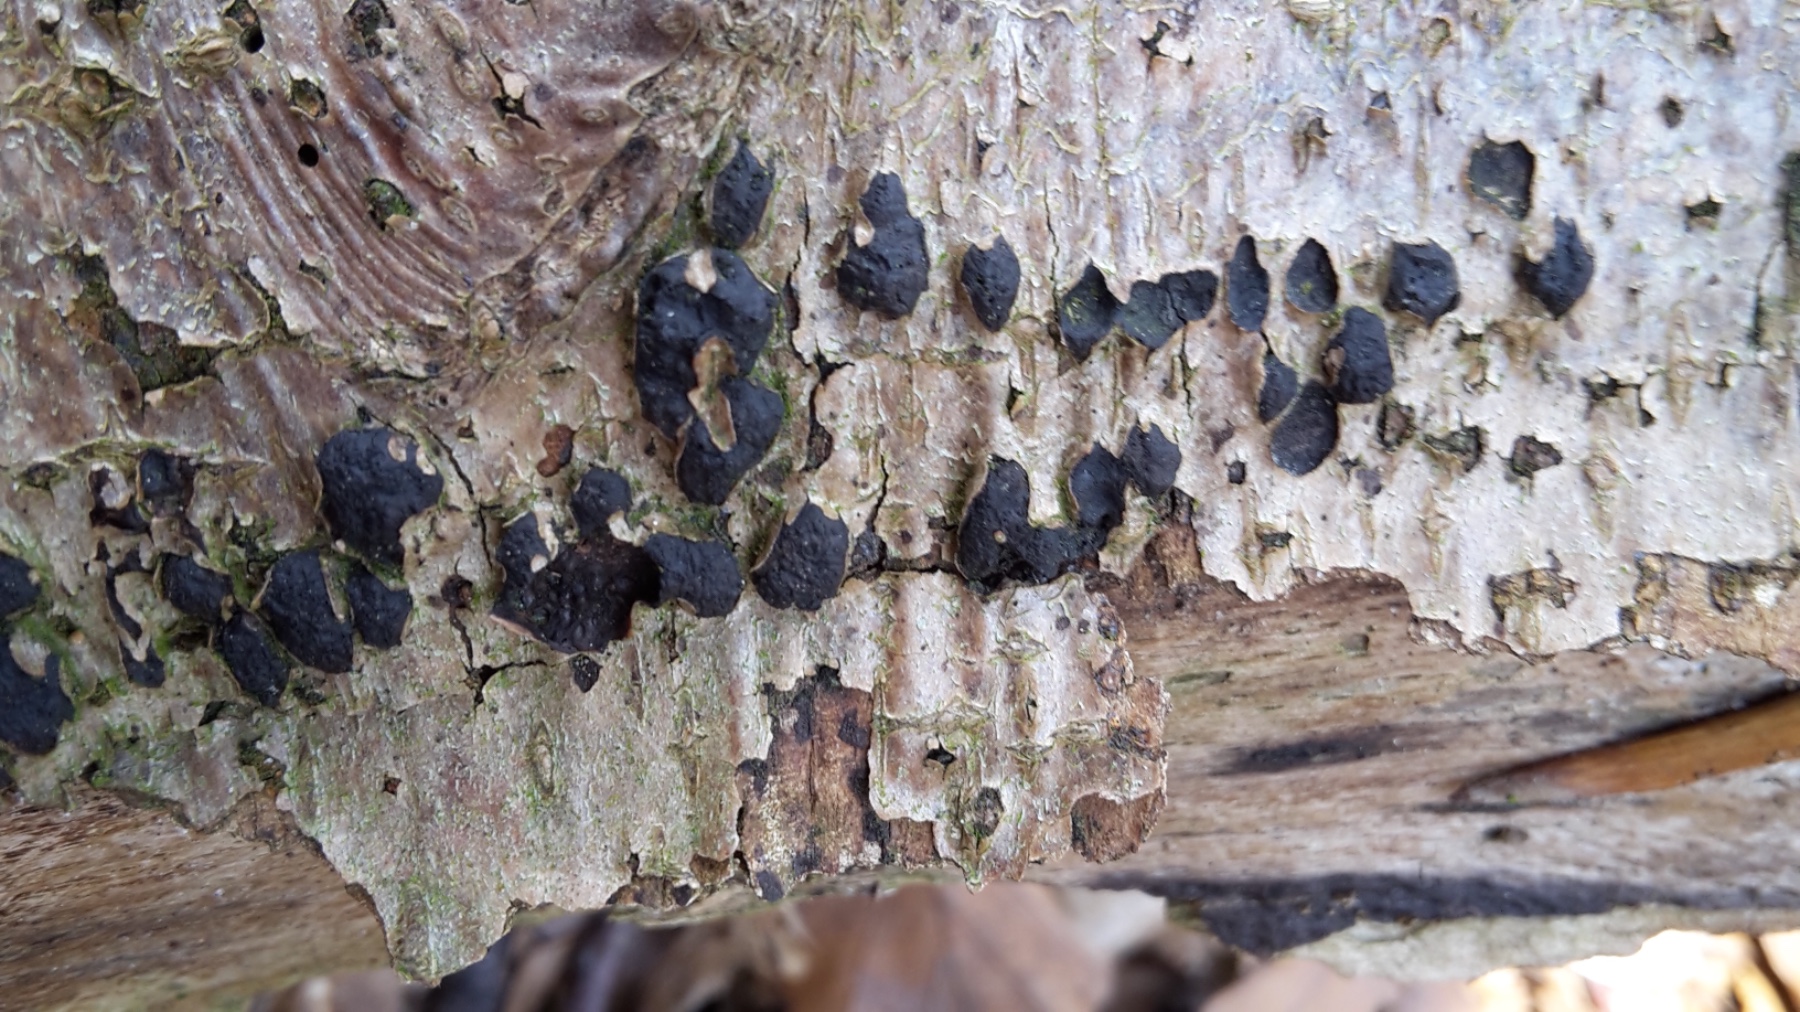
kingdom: Fungi
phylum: Ascomycota
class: Sordariomycetes
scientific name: Sordariomycetes
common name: kernesvampklassen
